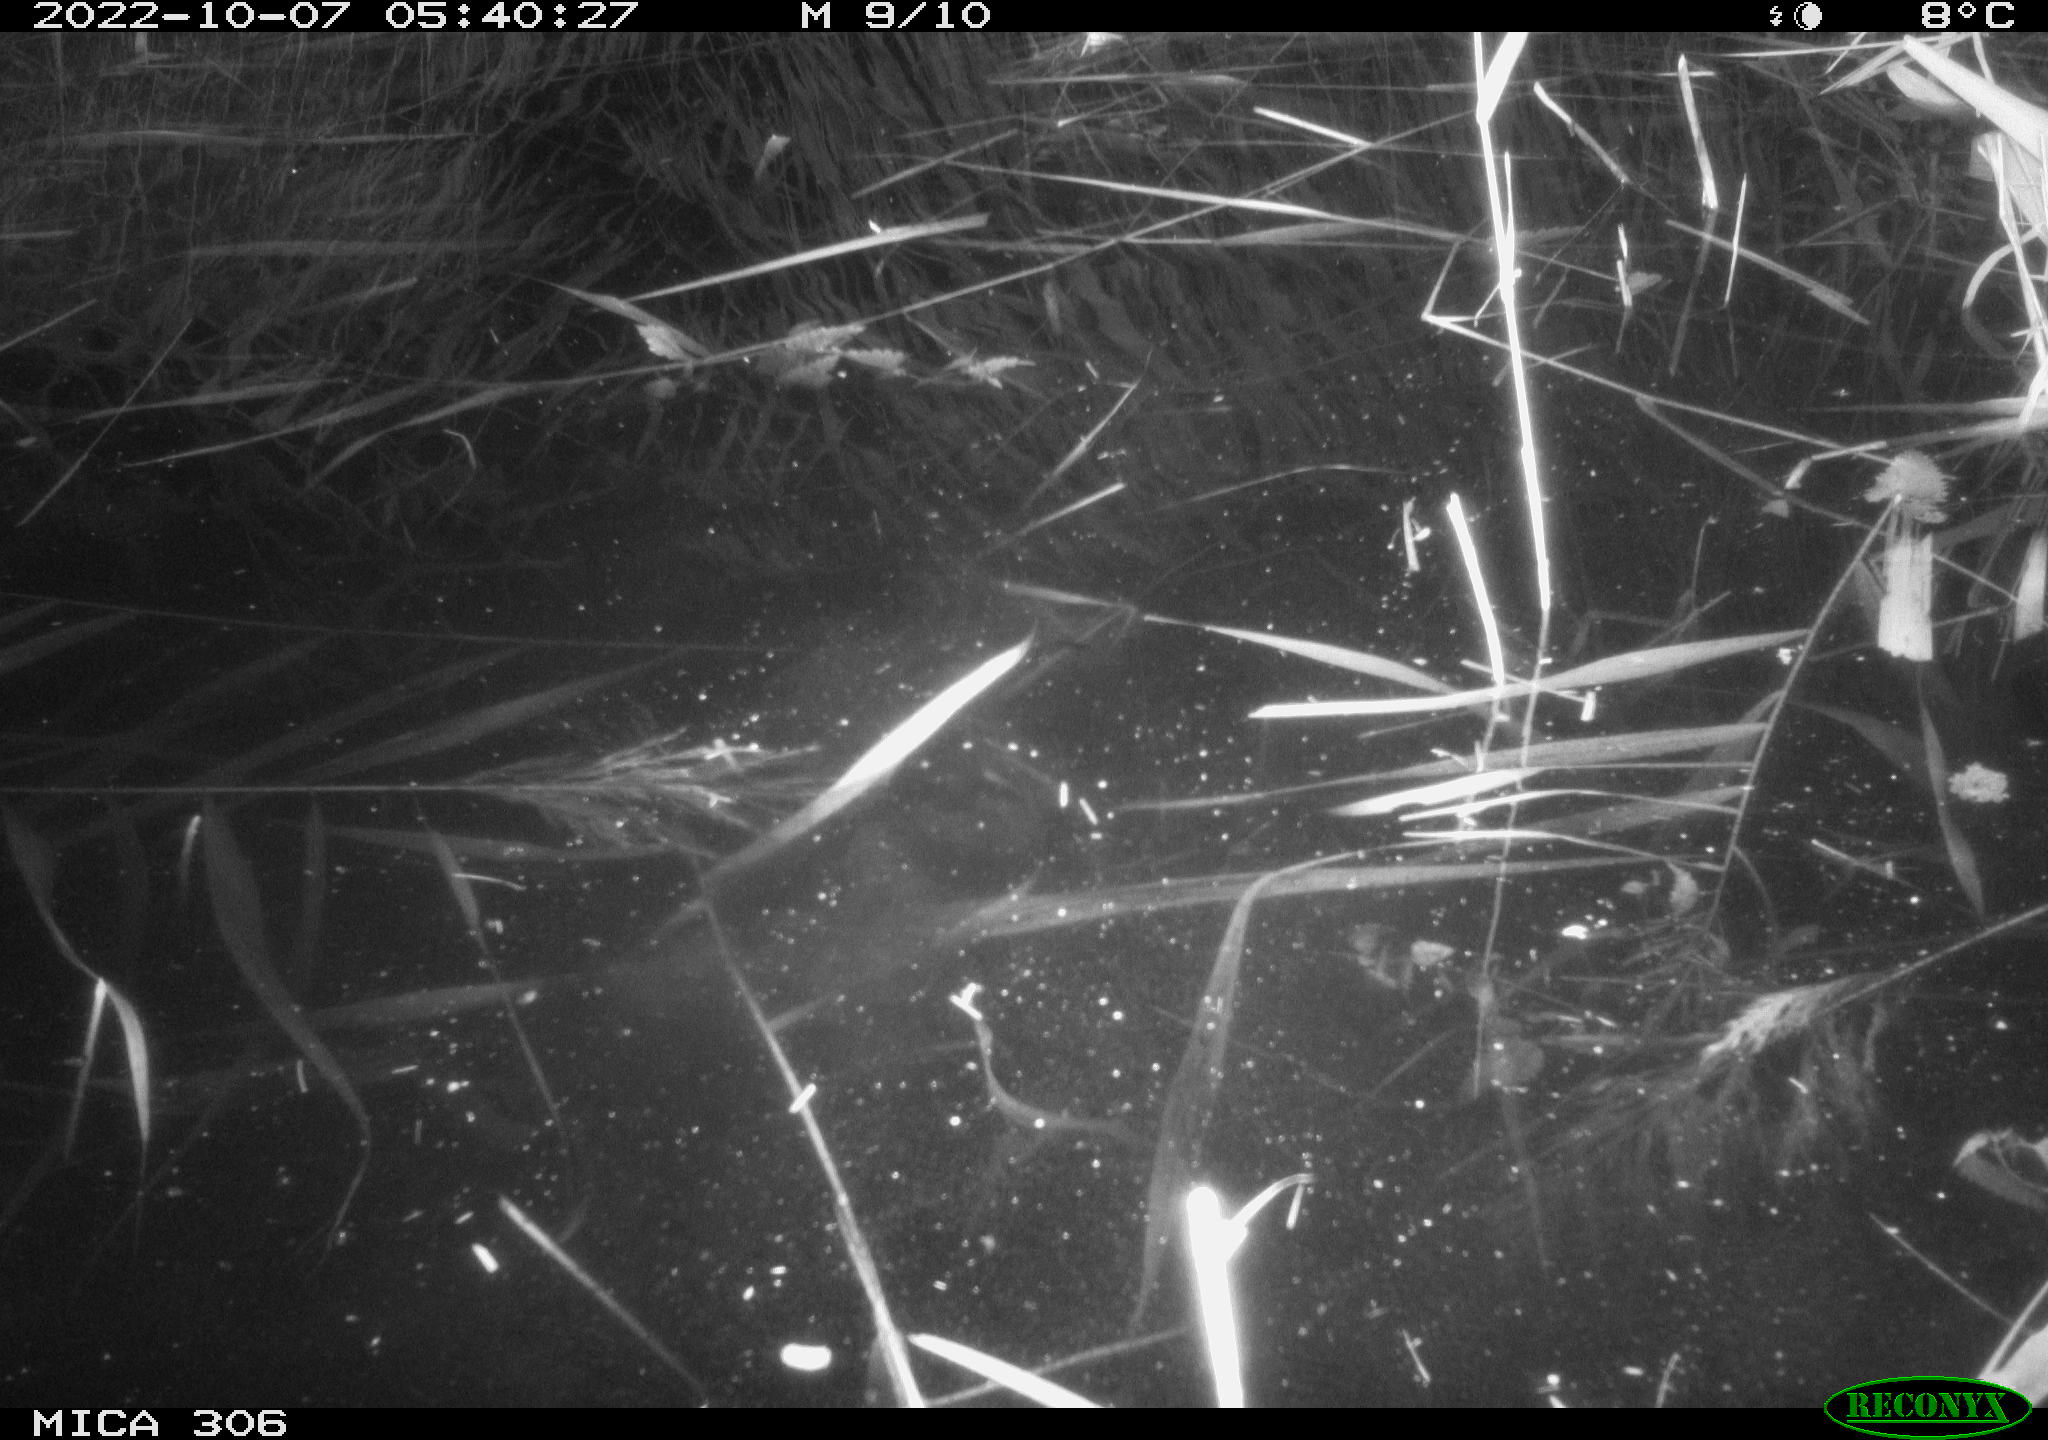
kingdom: Animalia
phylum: Chordata
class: Mammalia
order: Rodentia
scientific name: Rodentia
